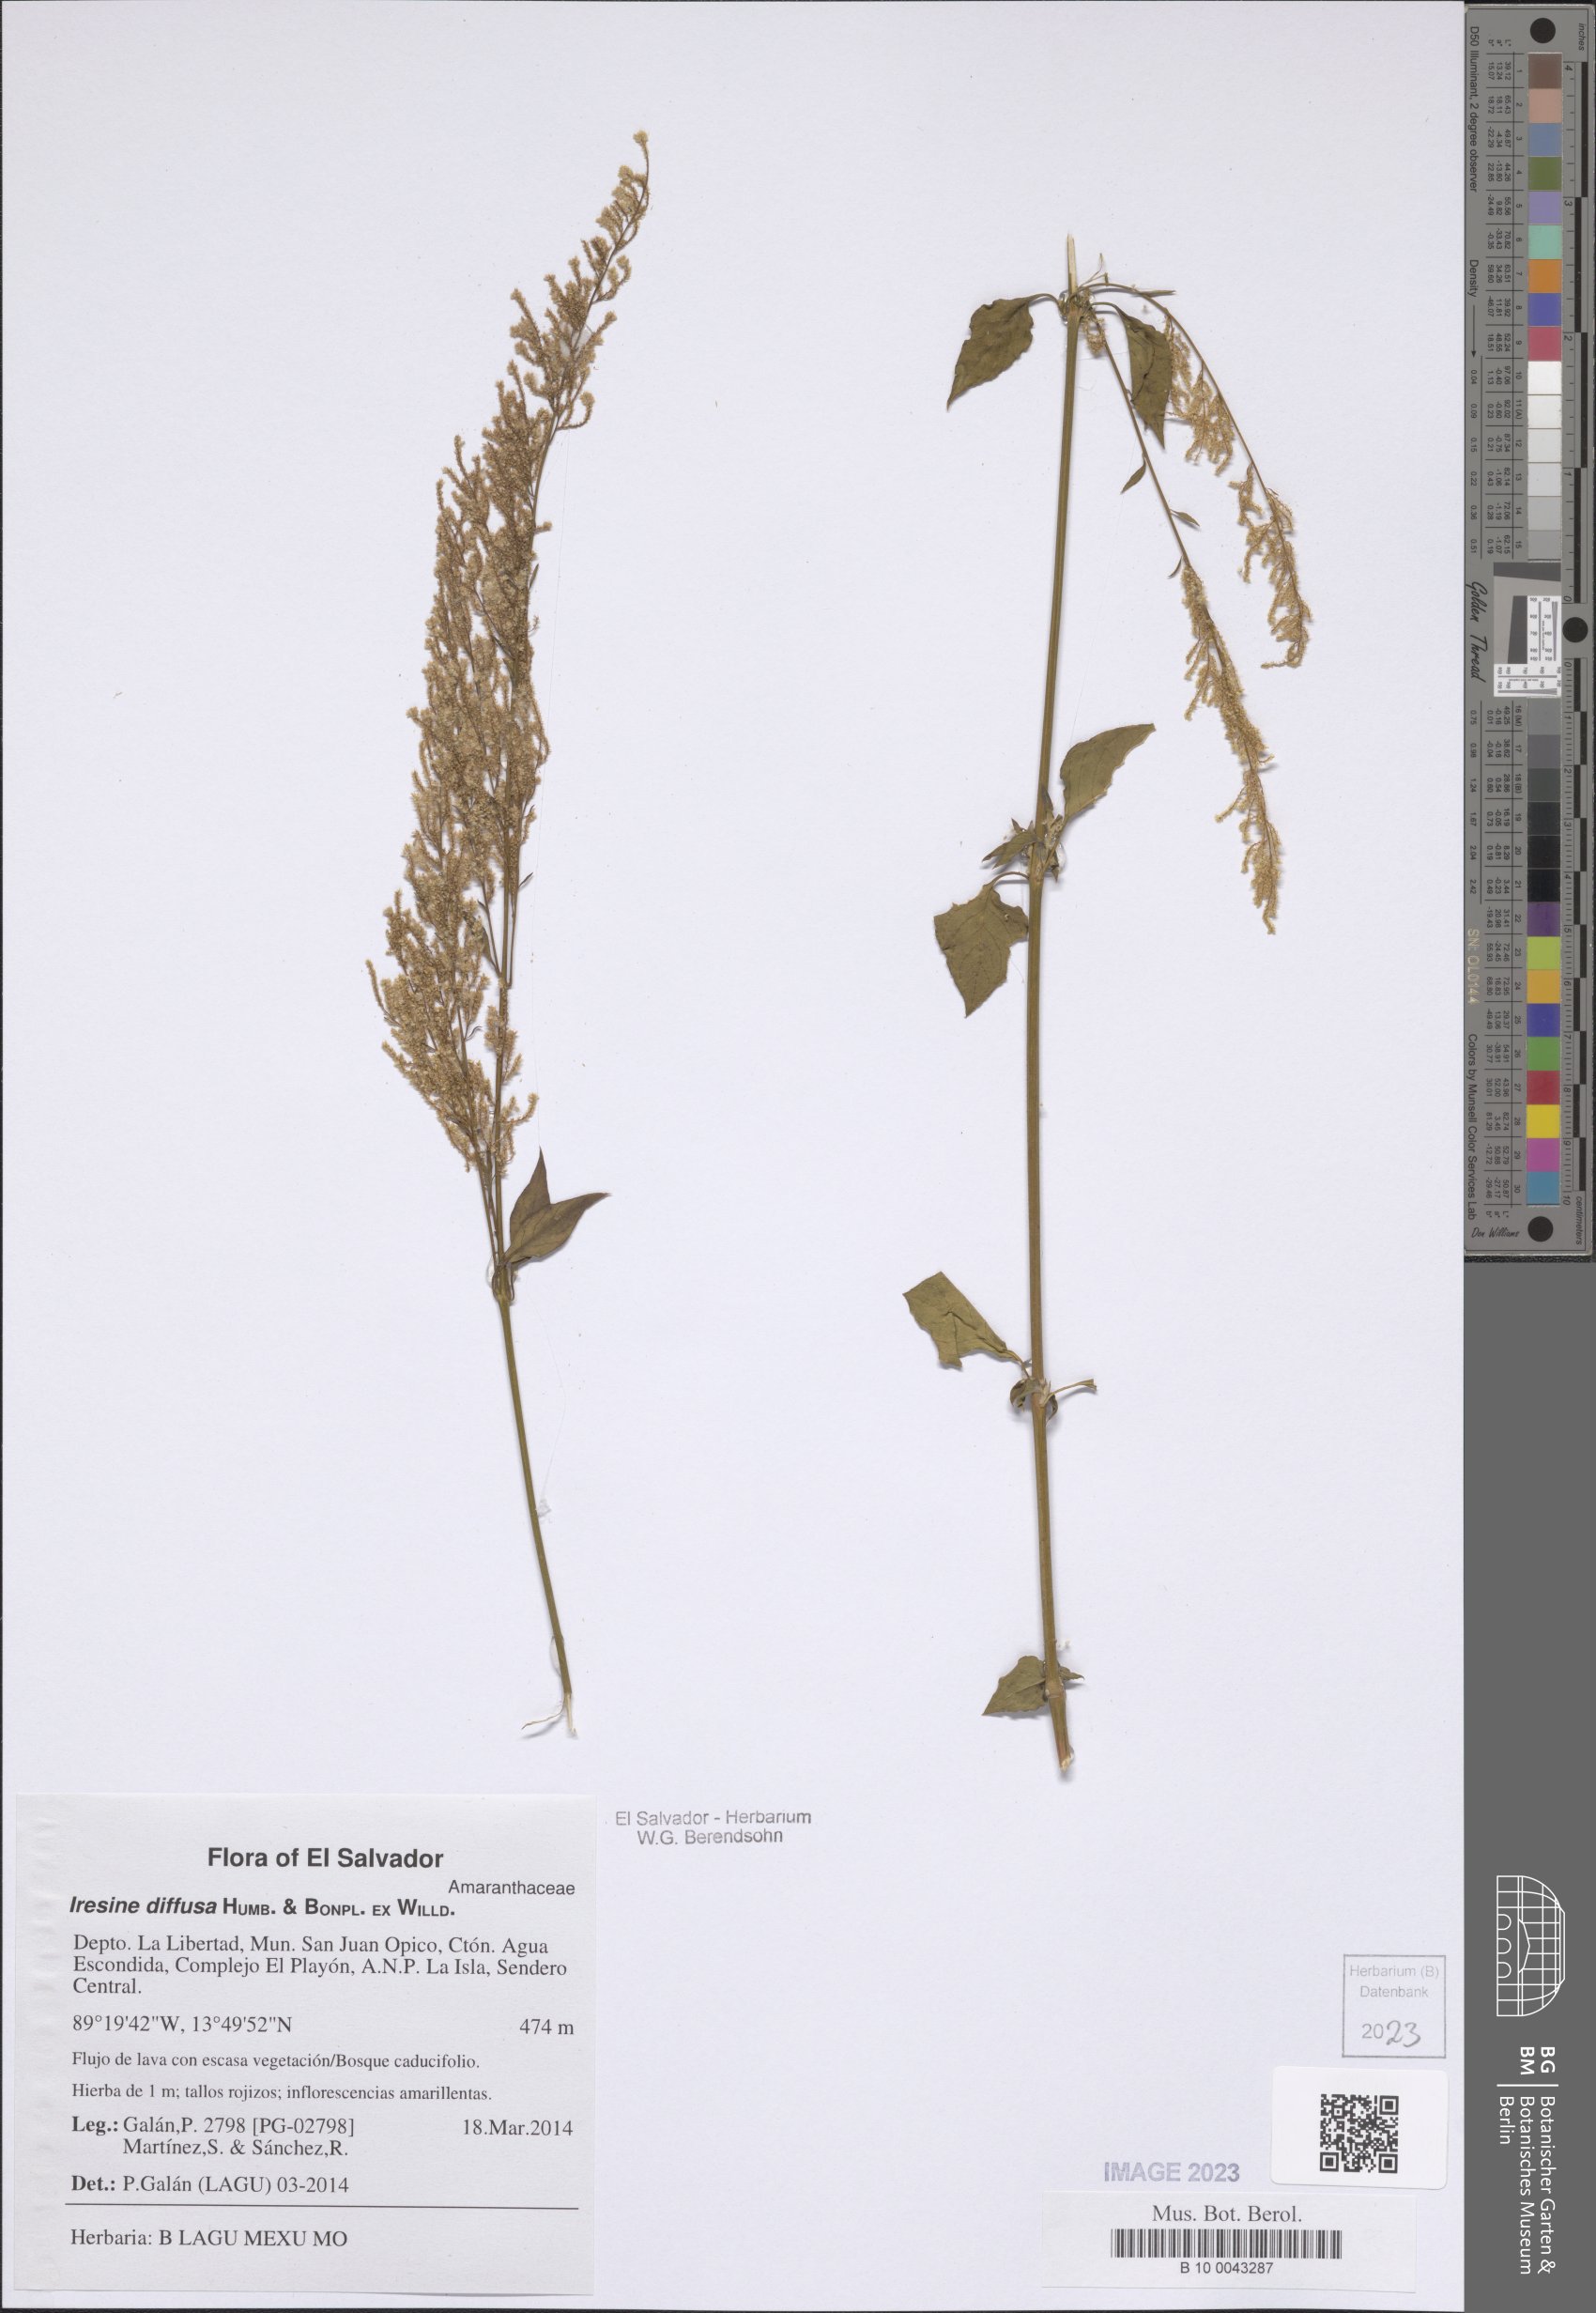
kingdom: Plantae
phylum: Tracheophyta
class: Magnoliopsida
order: Caryophyllales
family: Amaranthaceae
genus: Iresine
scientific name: Iresine diffusa
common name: Juba's-bush
